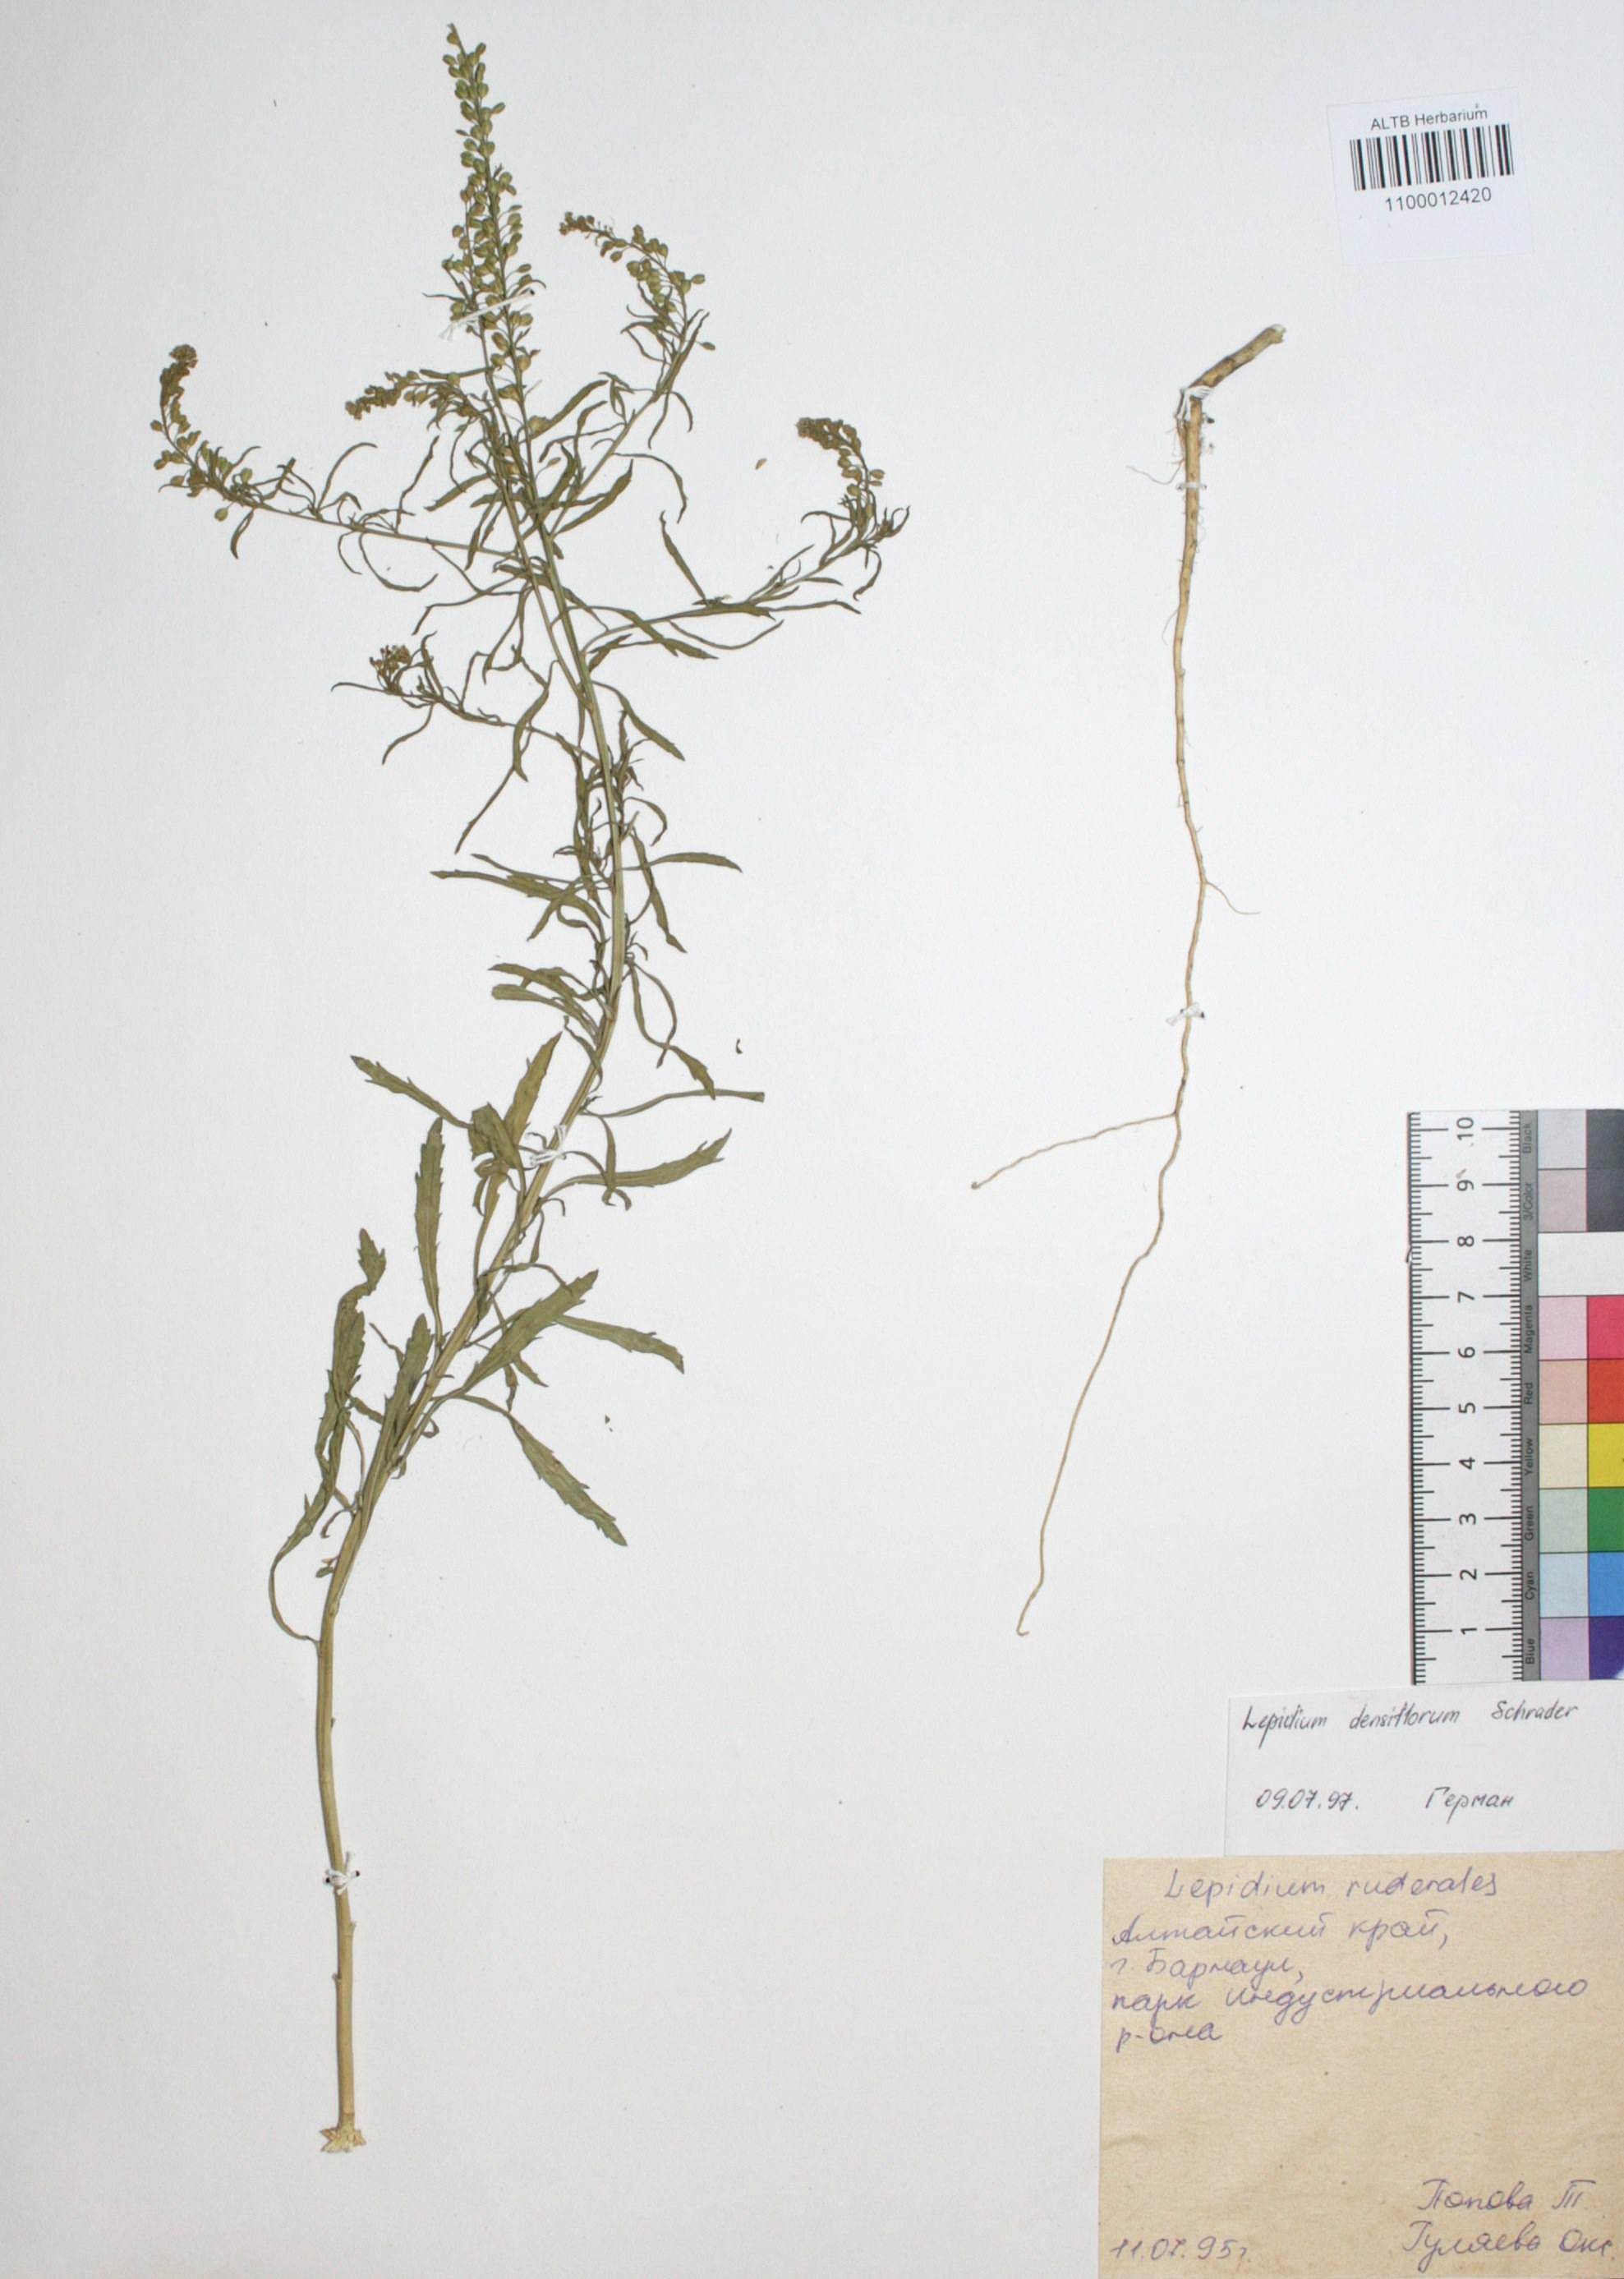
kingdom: Plantae
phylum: Tracheophyta
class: Magnoliopsida
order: Brassicales
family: Brassicaceae
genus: Lepidium
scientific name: Lepidium densiflorum
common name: Miner's pepperwort
